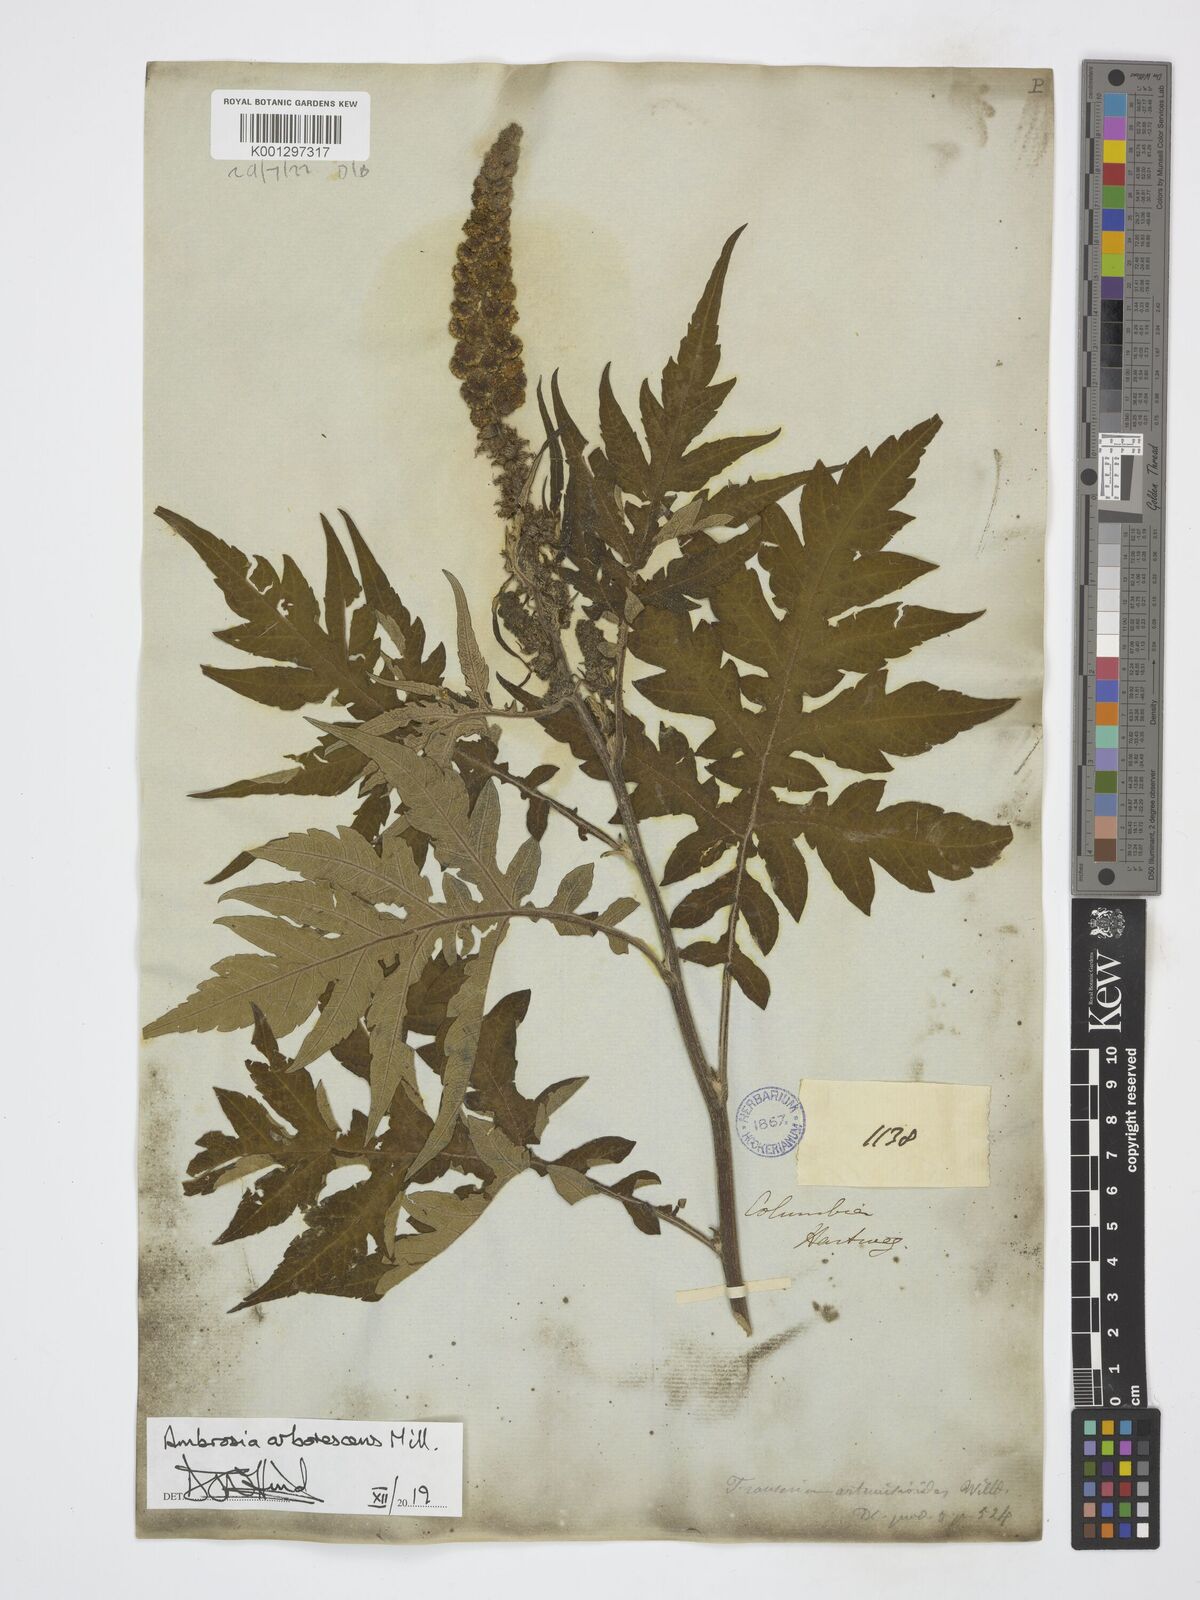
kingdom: Plantae
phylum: Tracheophyta
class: Magnoliopsida
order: Asterales
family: Asteraceae
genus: Ambrosia
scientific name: Ambrosia arborescens
